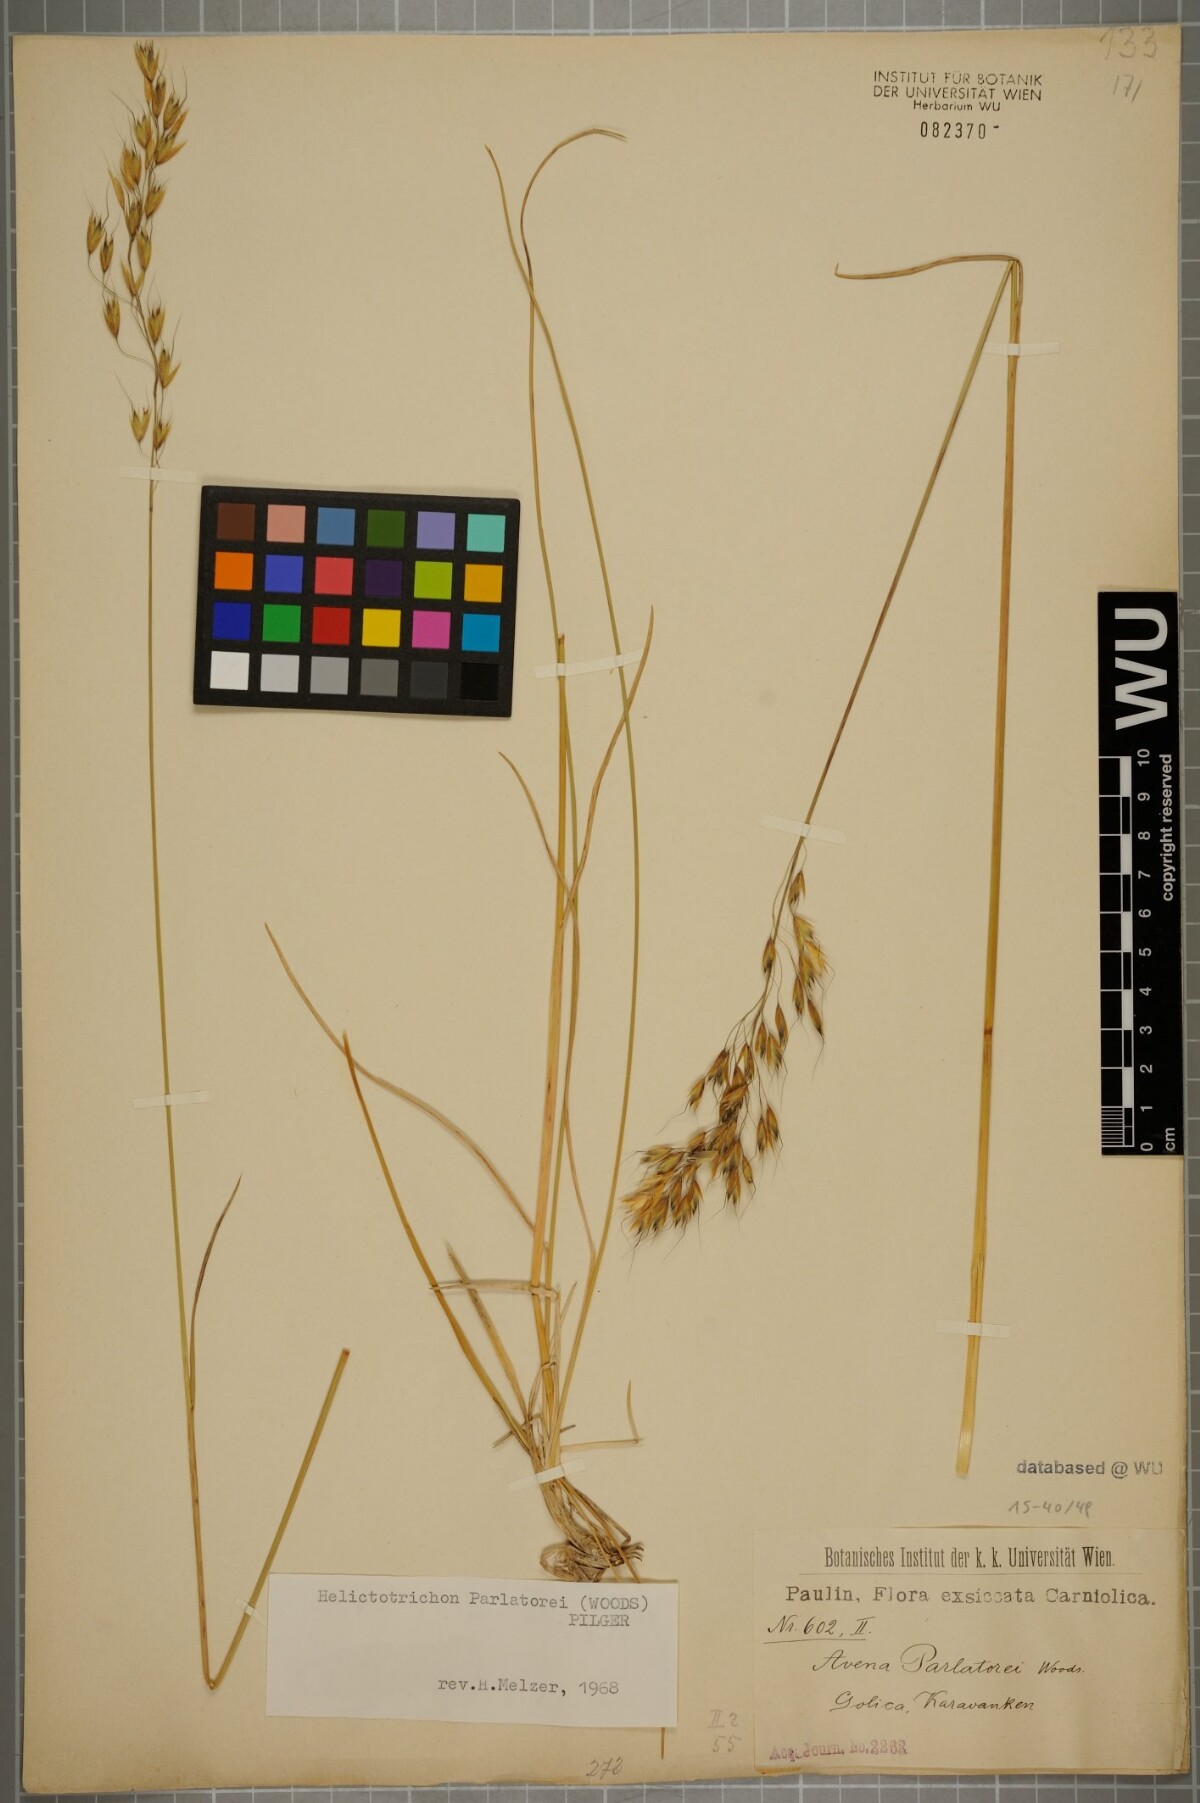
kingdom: Plantae
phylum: Tracheophyta
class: Liliopsida
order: Poales
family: Poaceae
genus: Helictotrichon
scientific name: Helictotrichon parlatorei
